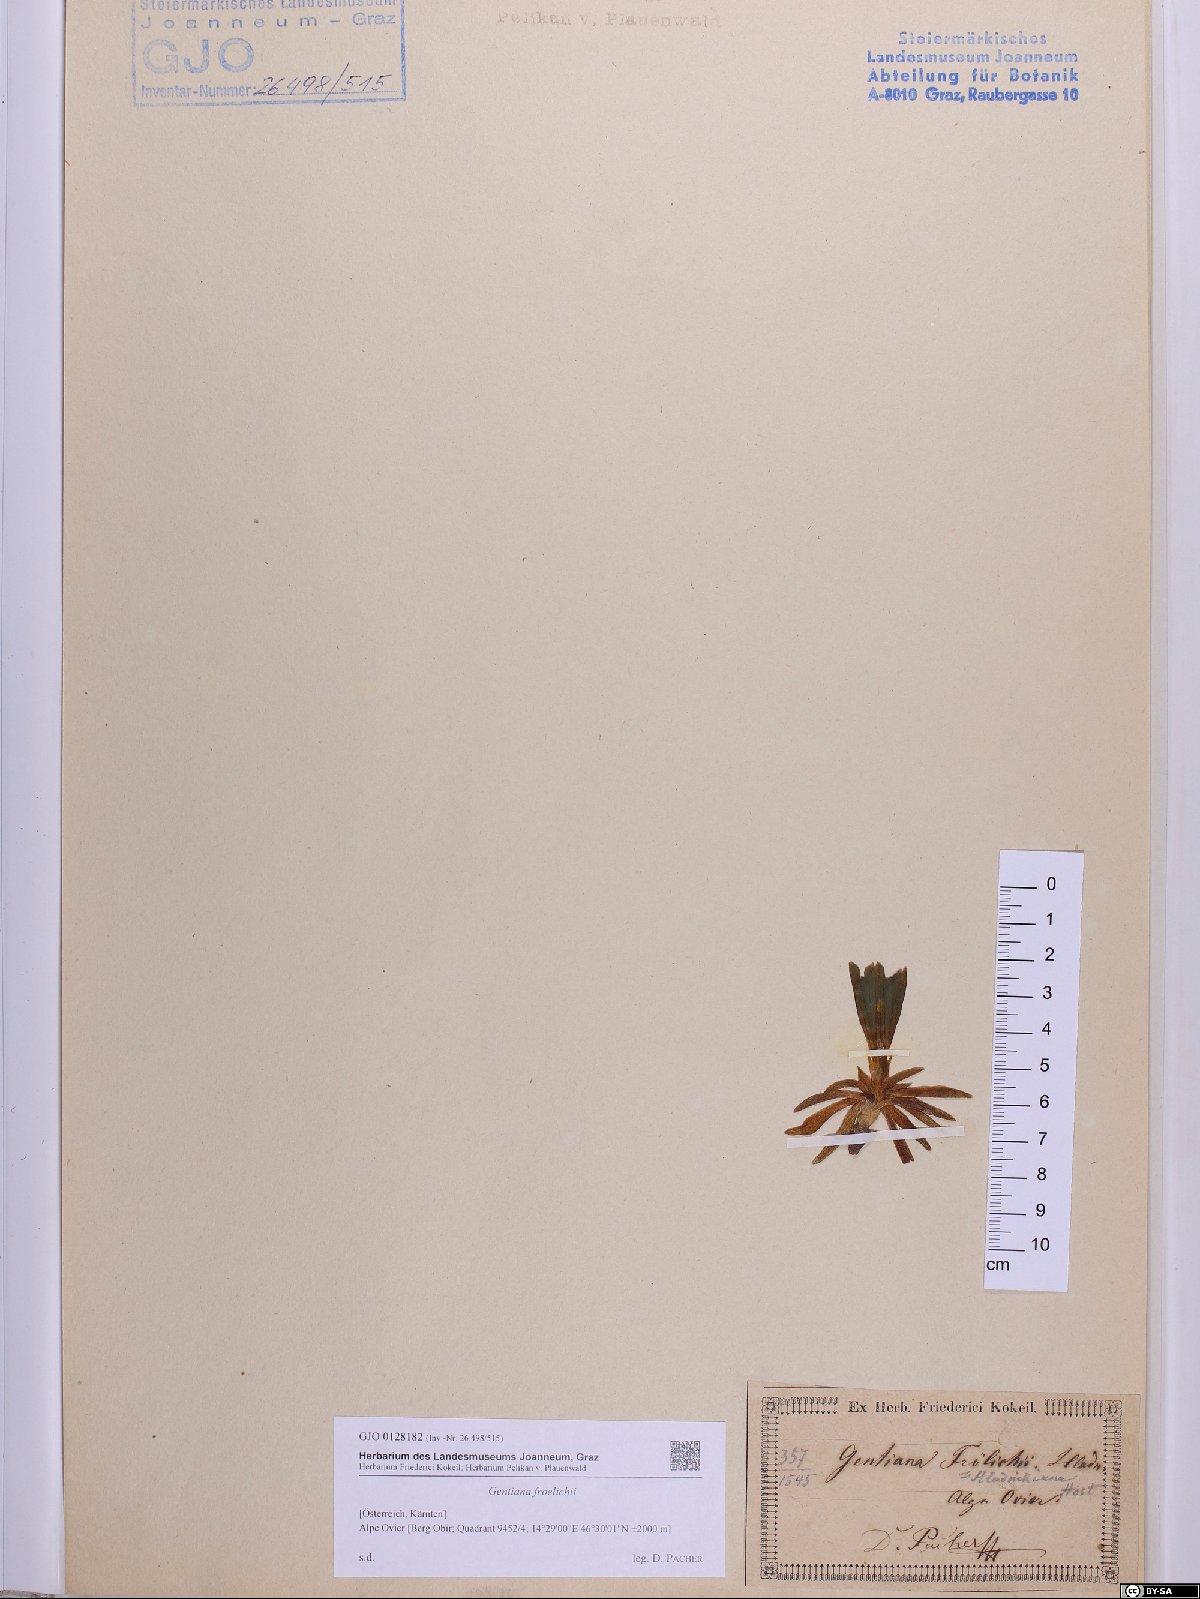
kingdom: Plantae
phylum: Tracheophyta
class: Magnoliopsida
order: Gentianales
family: Gentianaceae
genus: Gentiana
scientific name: Gentiana froelichii
